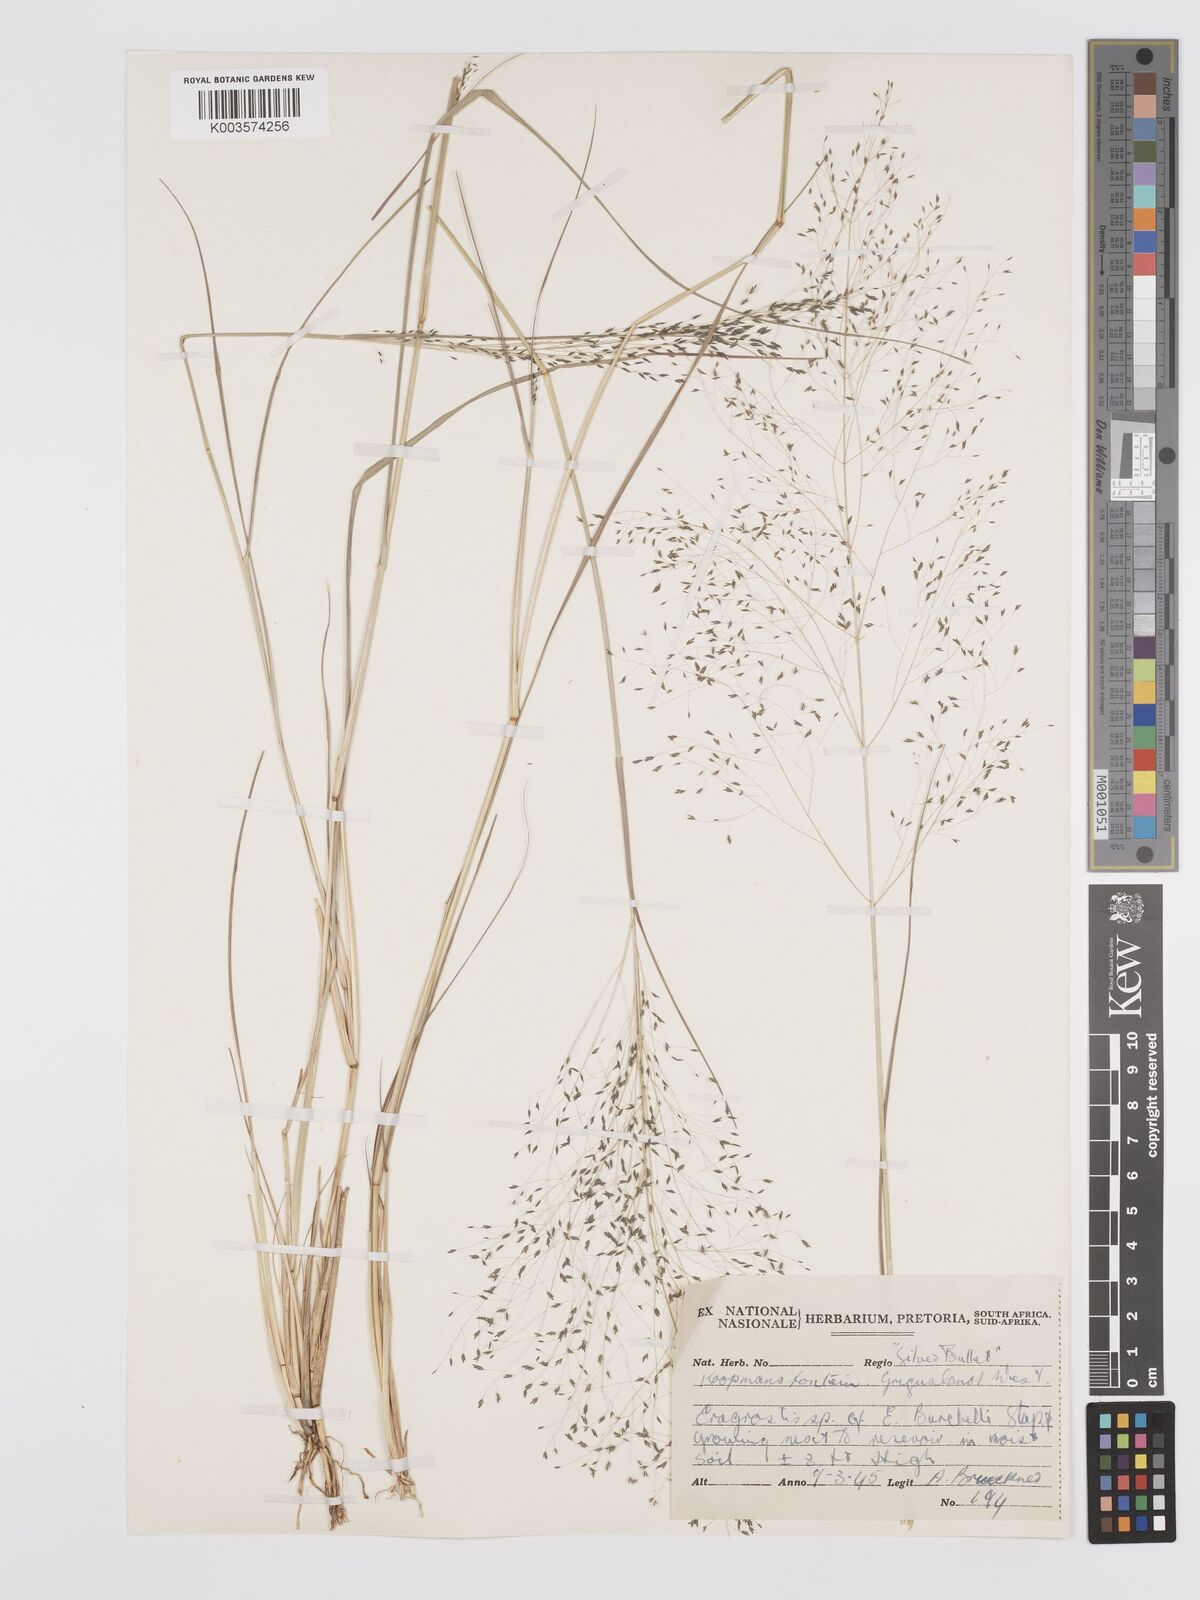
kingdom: Plantae
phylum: Tracheophyta
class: Liliopsida
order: Poales
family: Poaceae
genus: Eragrostis
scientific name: Eragrostis micrantha
